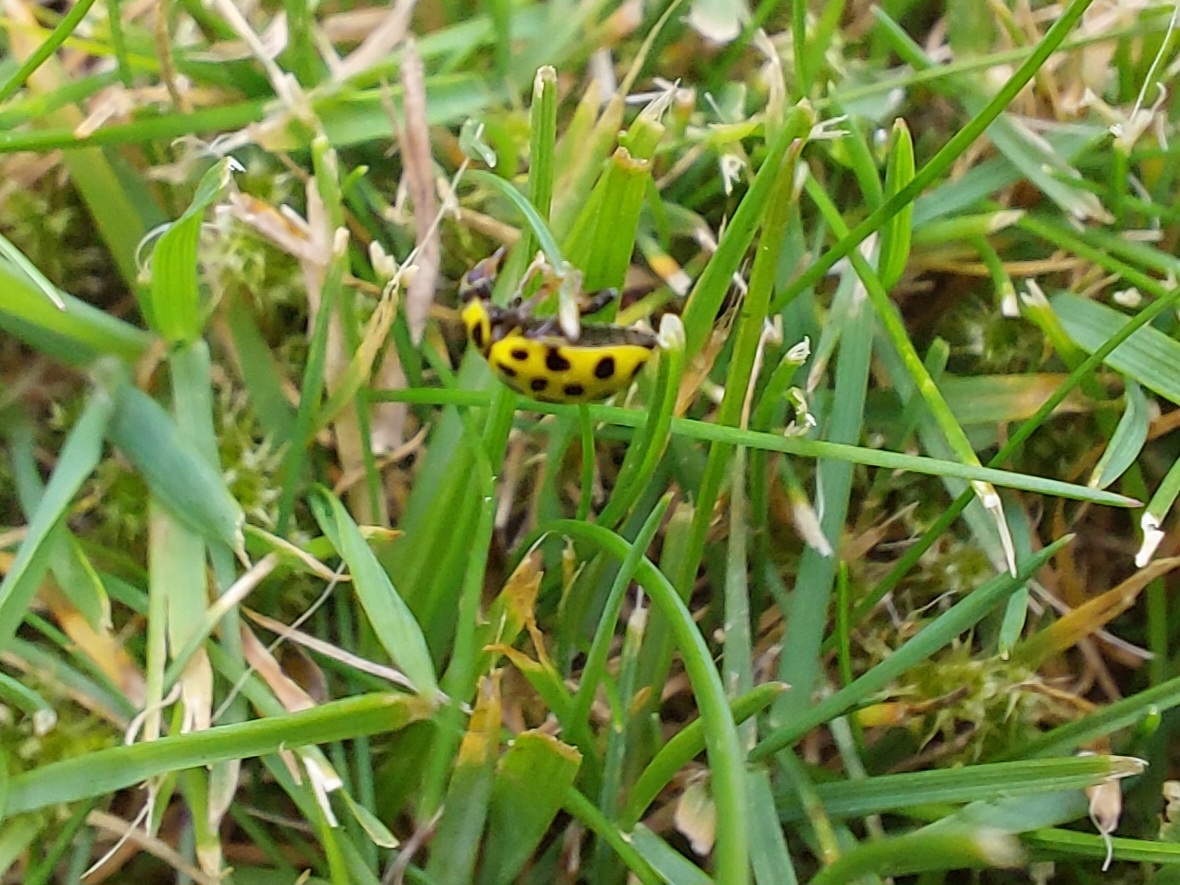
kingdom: Animalia
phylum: Arthropoda
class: Insecta
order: Coleoptera
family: Coccinellidae
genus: Psyllobora
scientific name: Psyllobora vigintiduopunctata
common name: Toogtyveplettet mariehøne
